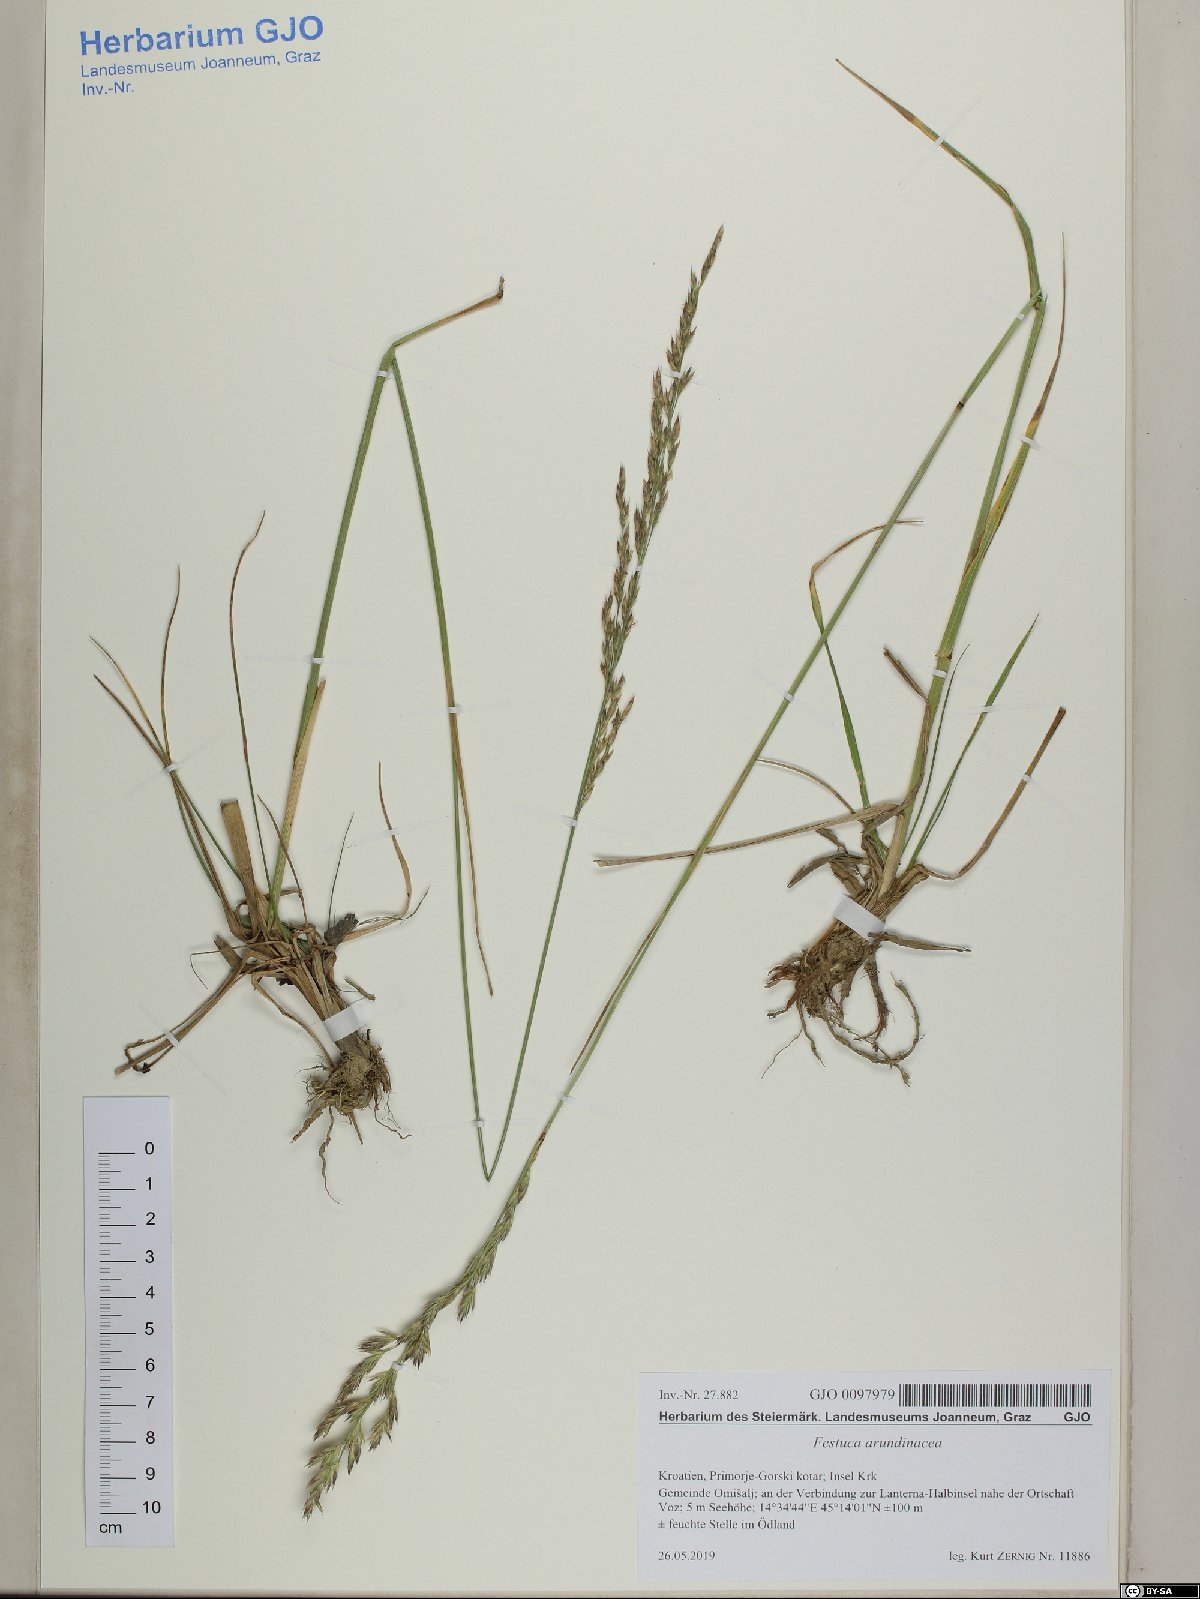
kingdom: Plantae
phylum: Tracheophyta
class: Liliopsida
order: Poales
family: Poaceae
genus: Lolium
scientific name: Lolium arundinaceum
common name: Reed fescue
